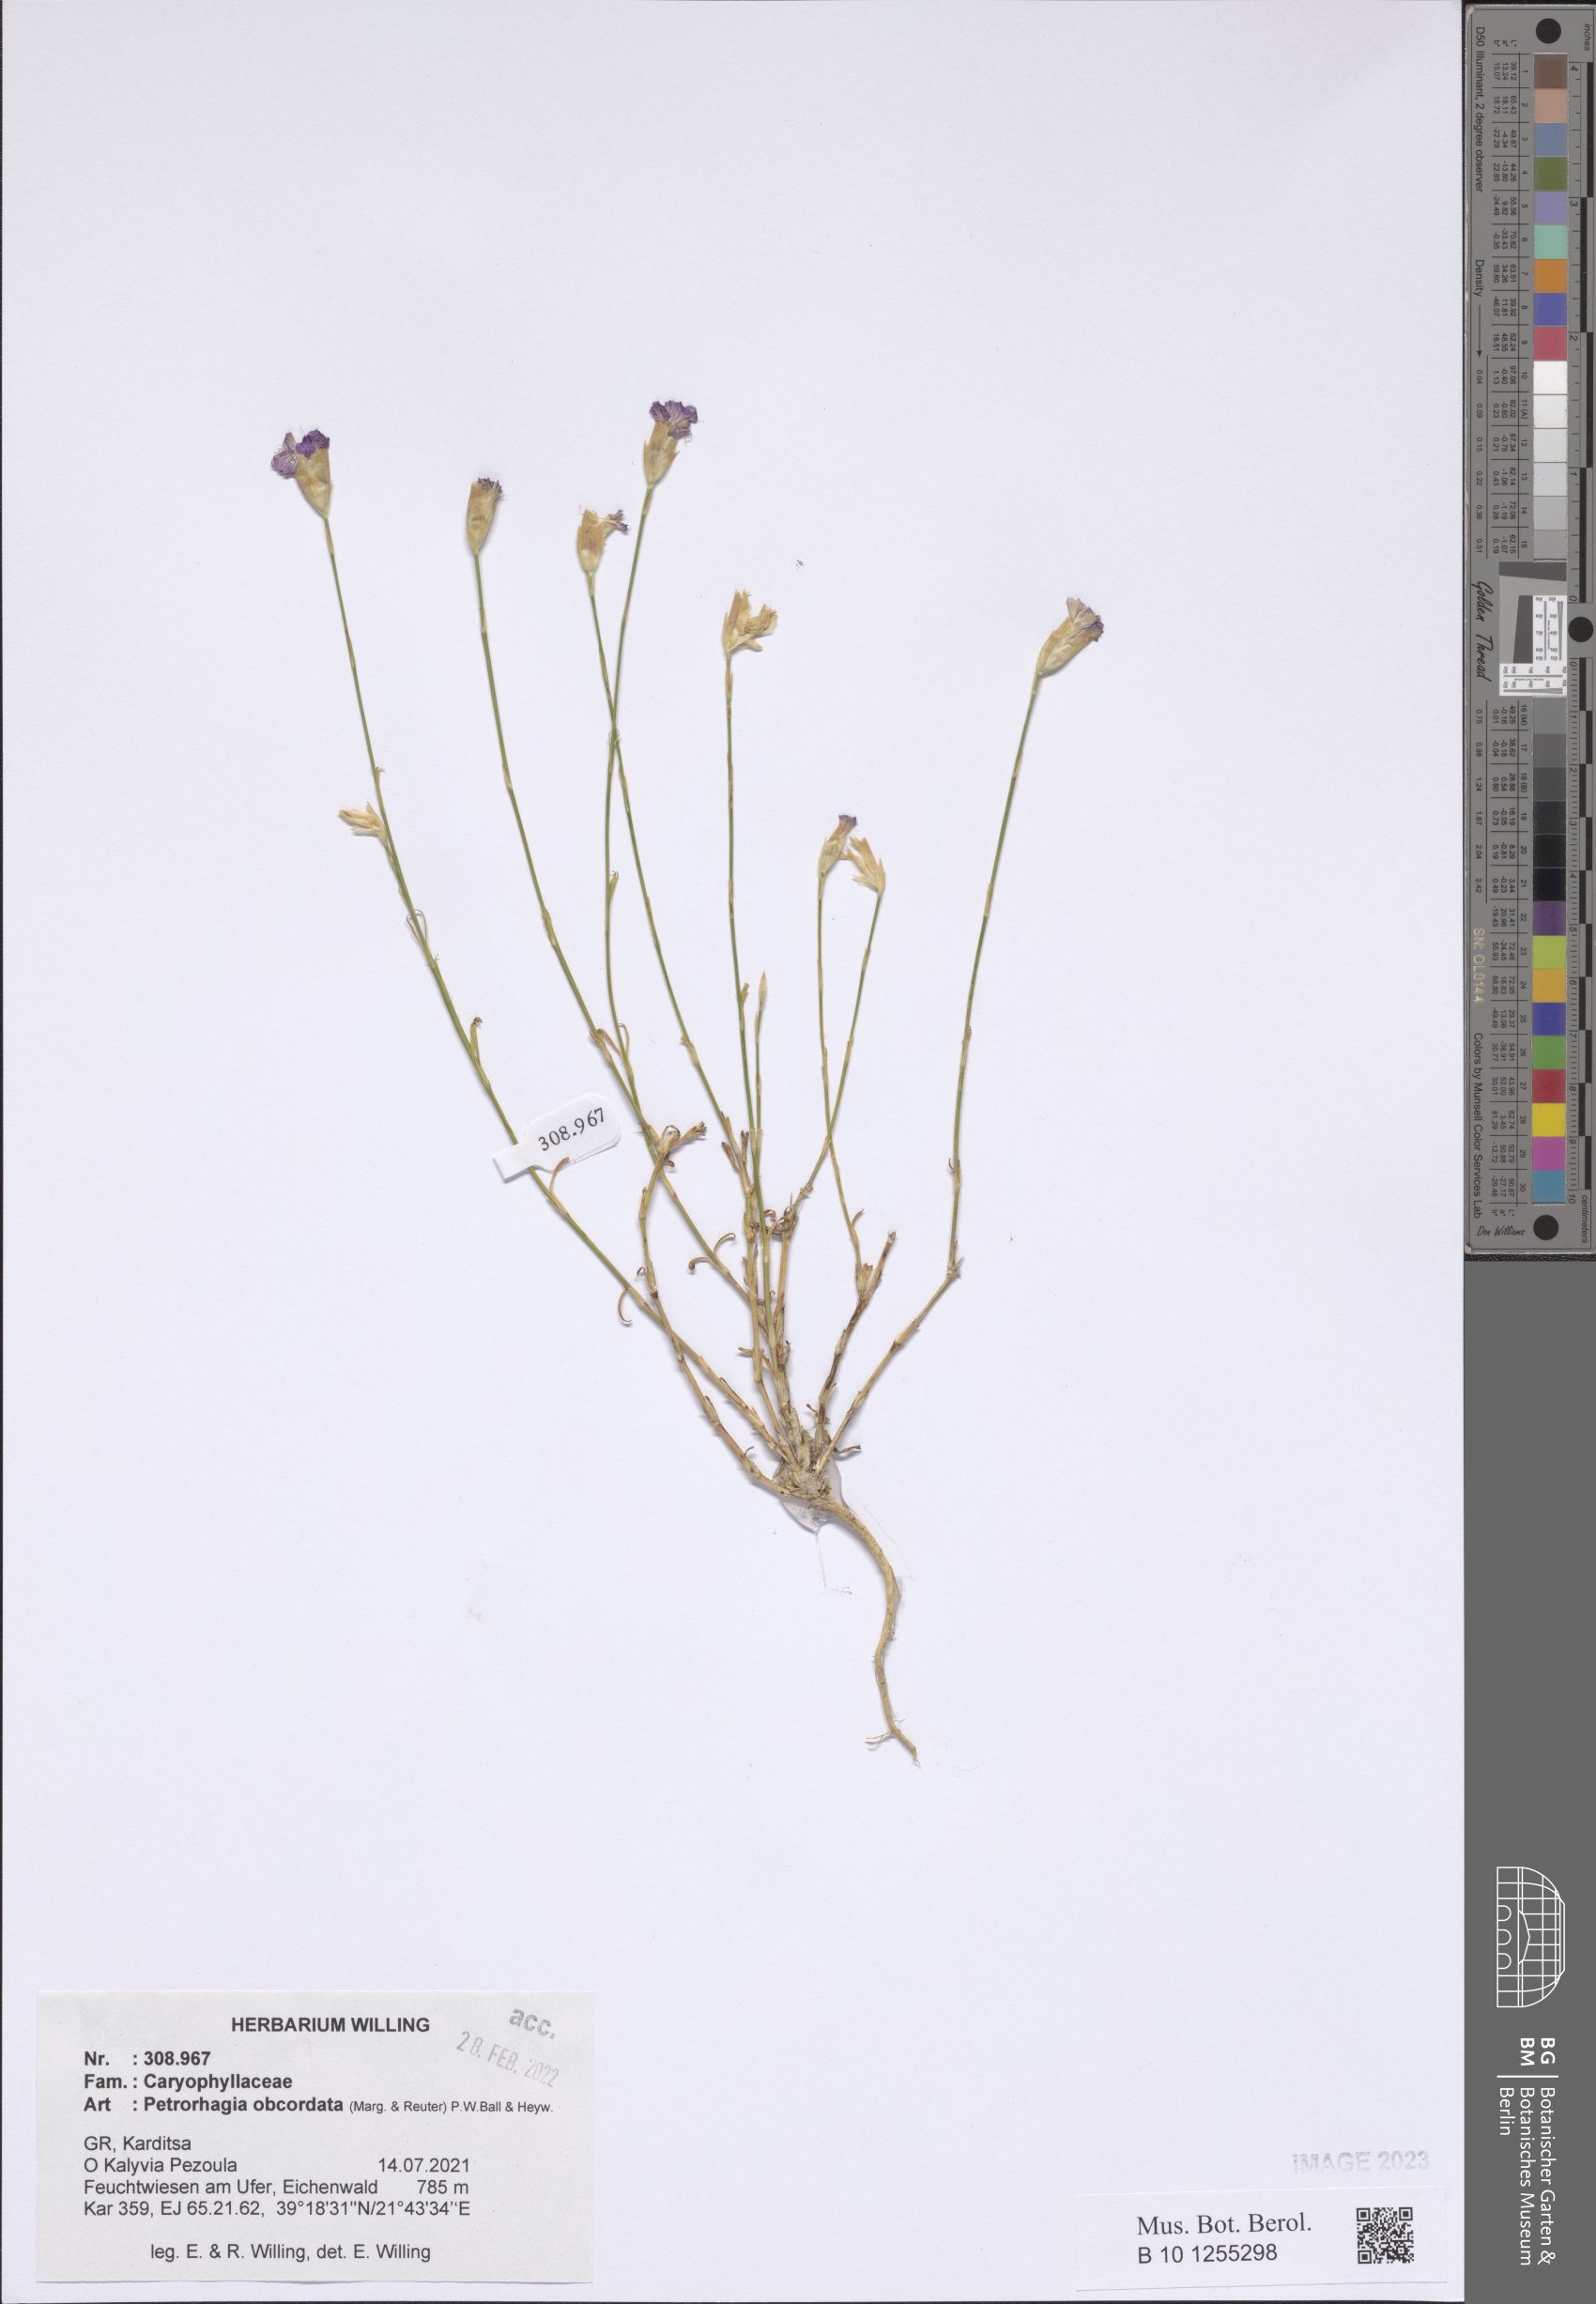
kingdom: Plantae
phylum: Tracheophyta
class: Magnoliopsida
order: Caryophyllales
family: Caryophyllaceae
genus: Petrorhagia
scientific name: Petrorhagia obcordata
